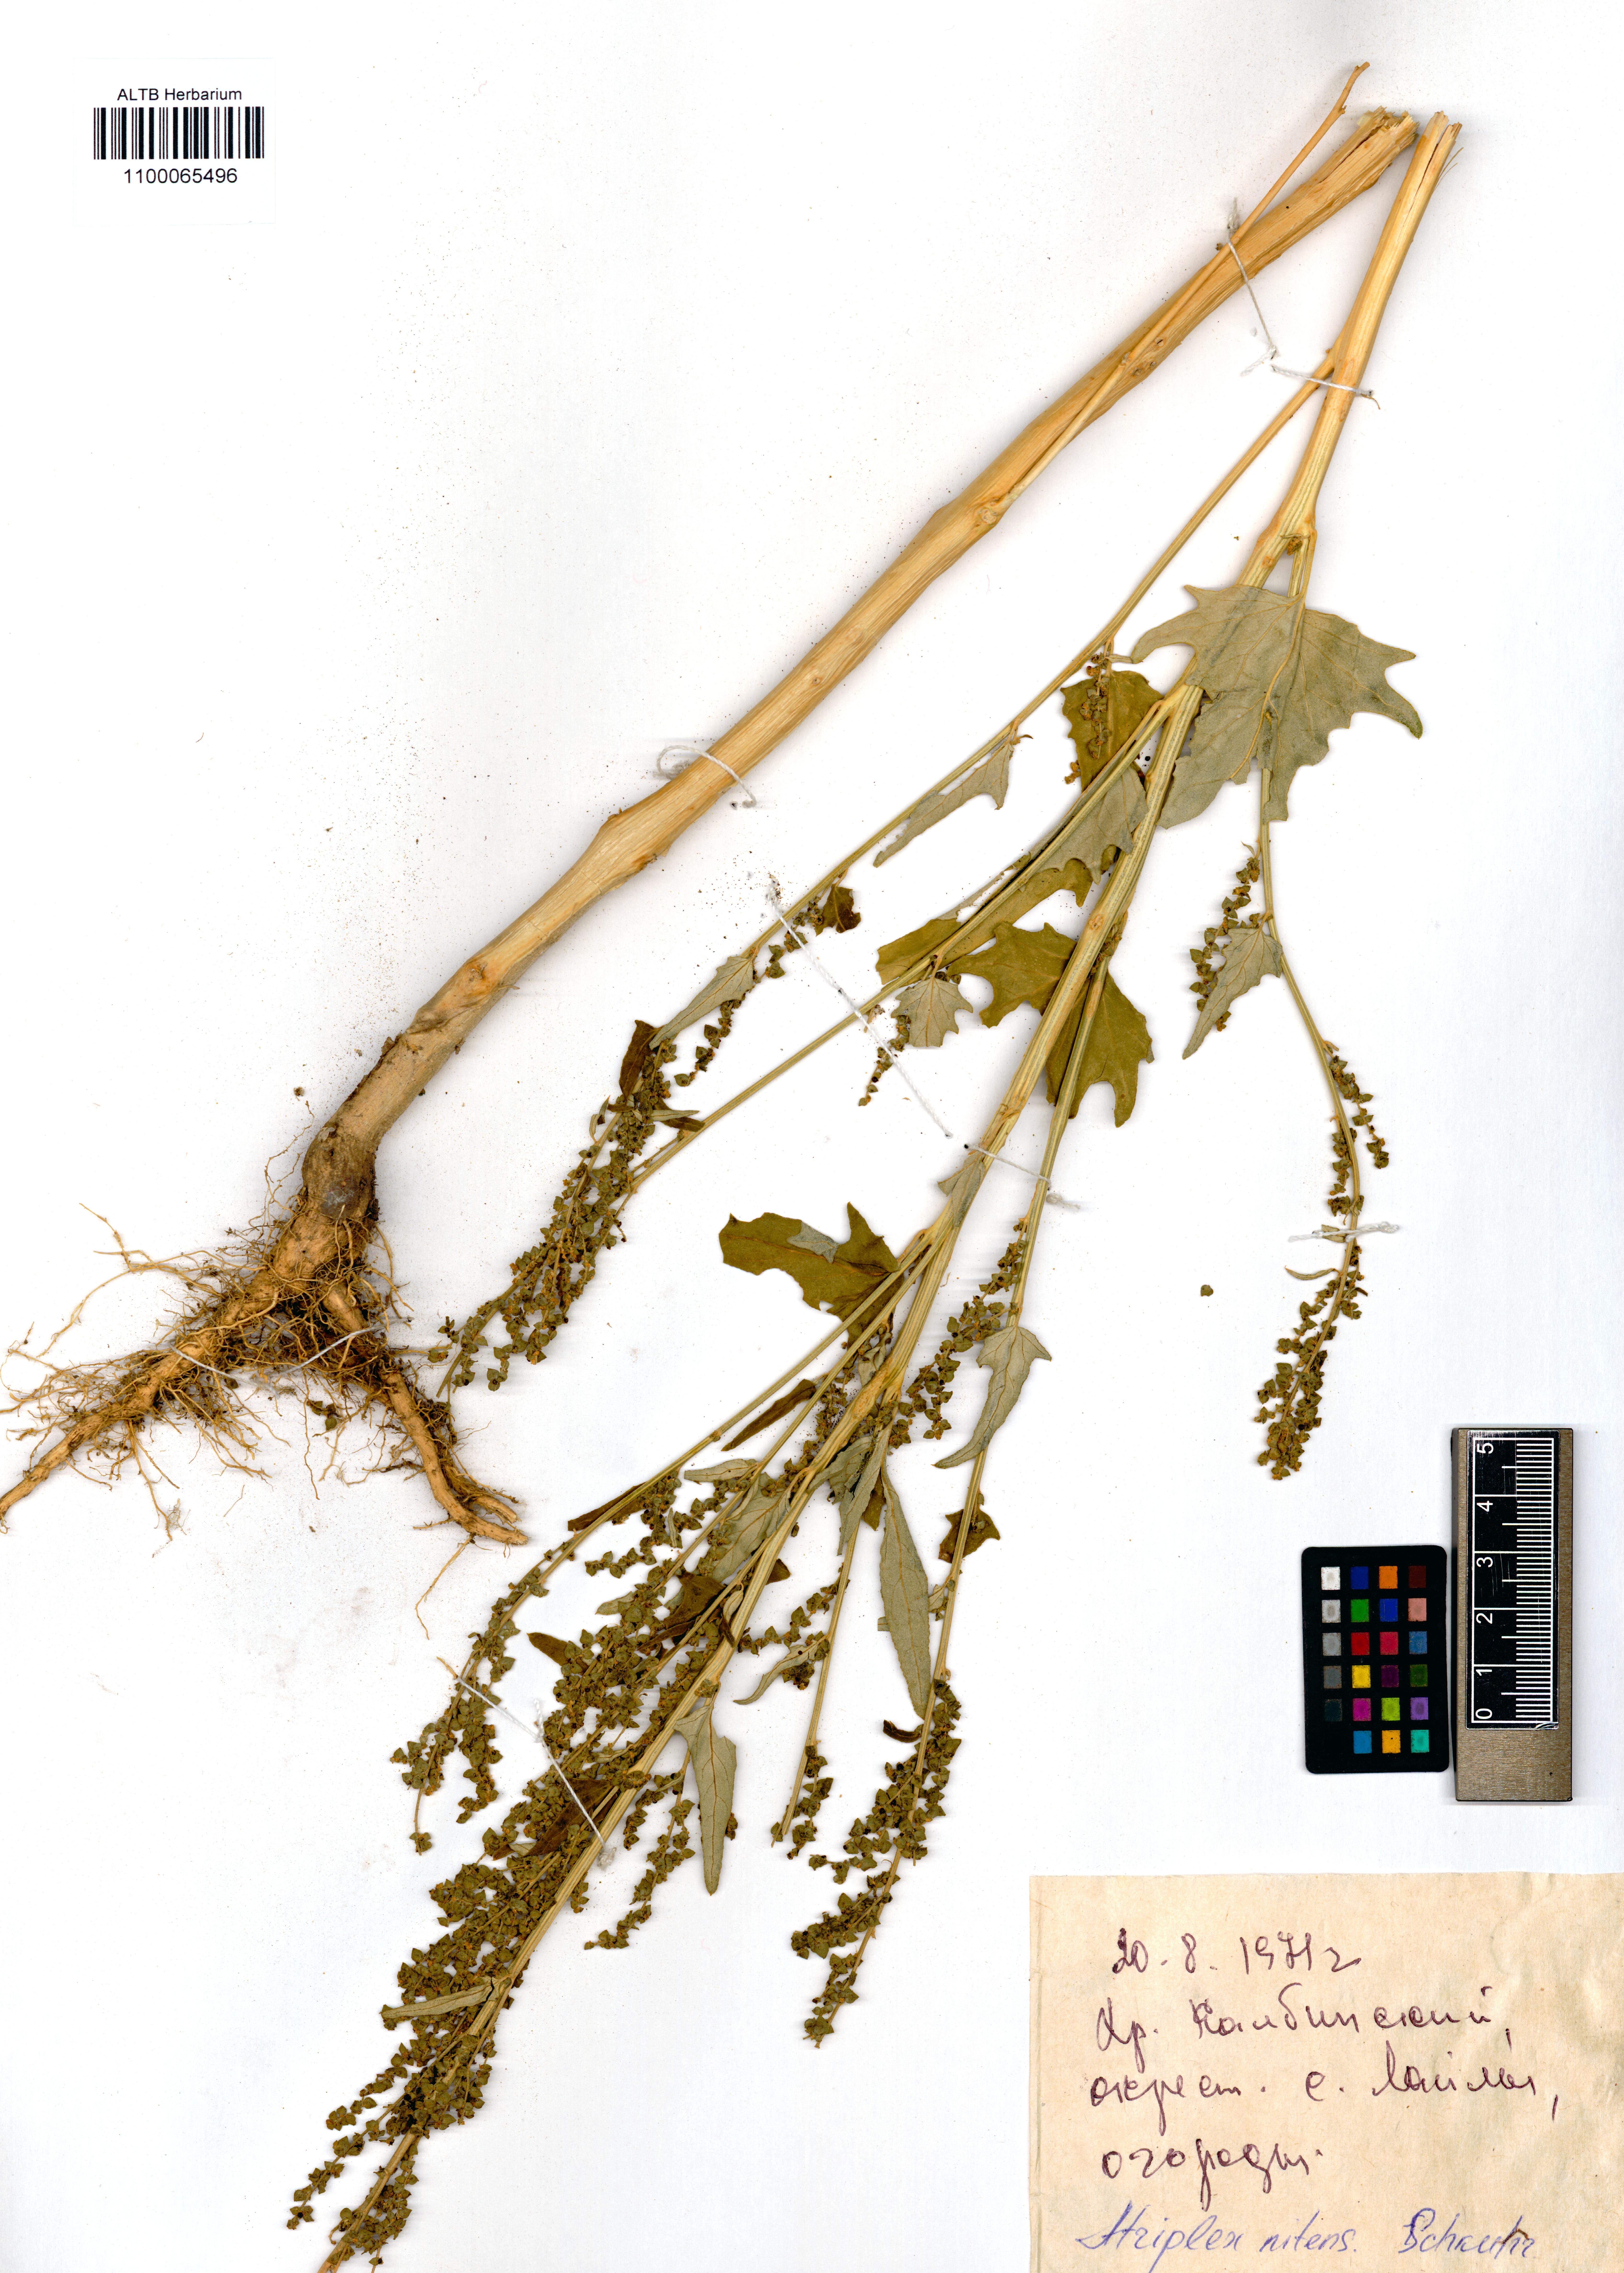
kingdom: Plantae
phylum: Tracheophyta
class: Magnoliopsida
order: Caryophyllales
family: Amaranthaceae
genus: Atriplex
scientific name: Atriplex sagittata
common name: Purple orache
